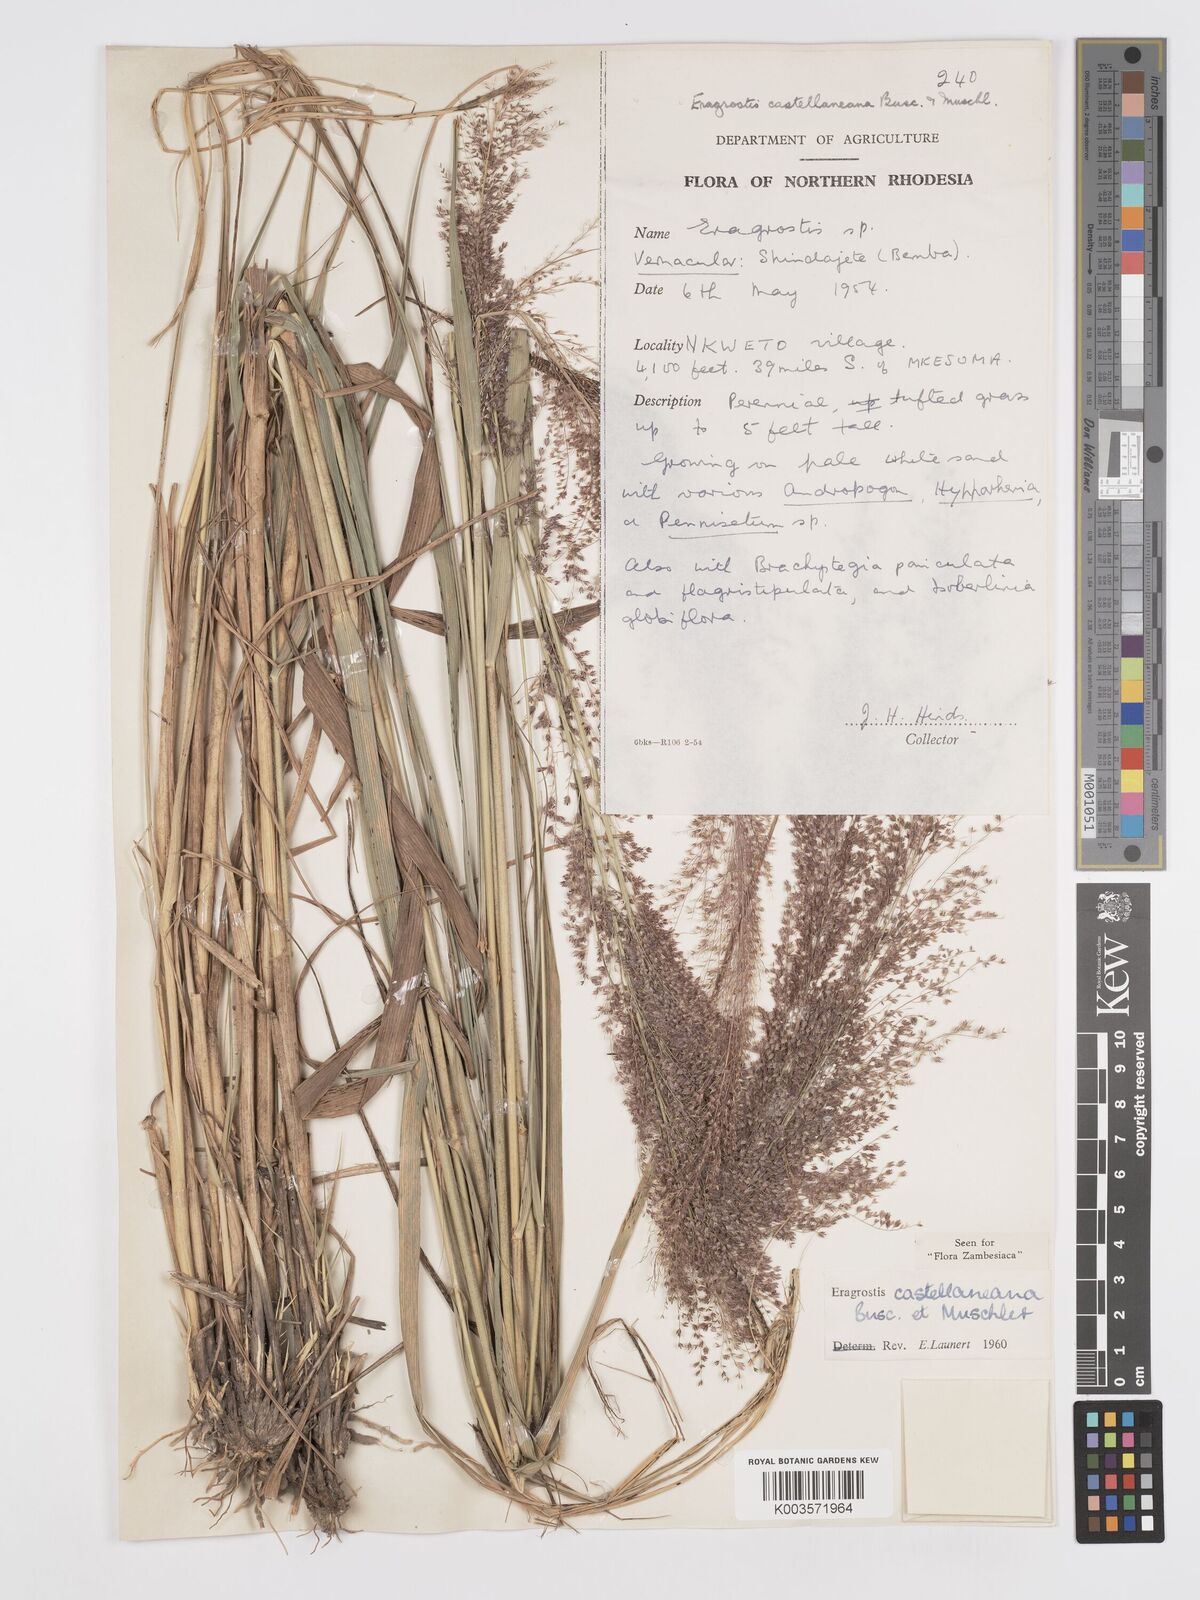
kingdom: Plantae
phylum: Tracheophyta
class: Liliopsida
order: Poales
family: Poaceae
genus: Eragrostis
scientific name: Eragrostis castellaneana
